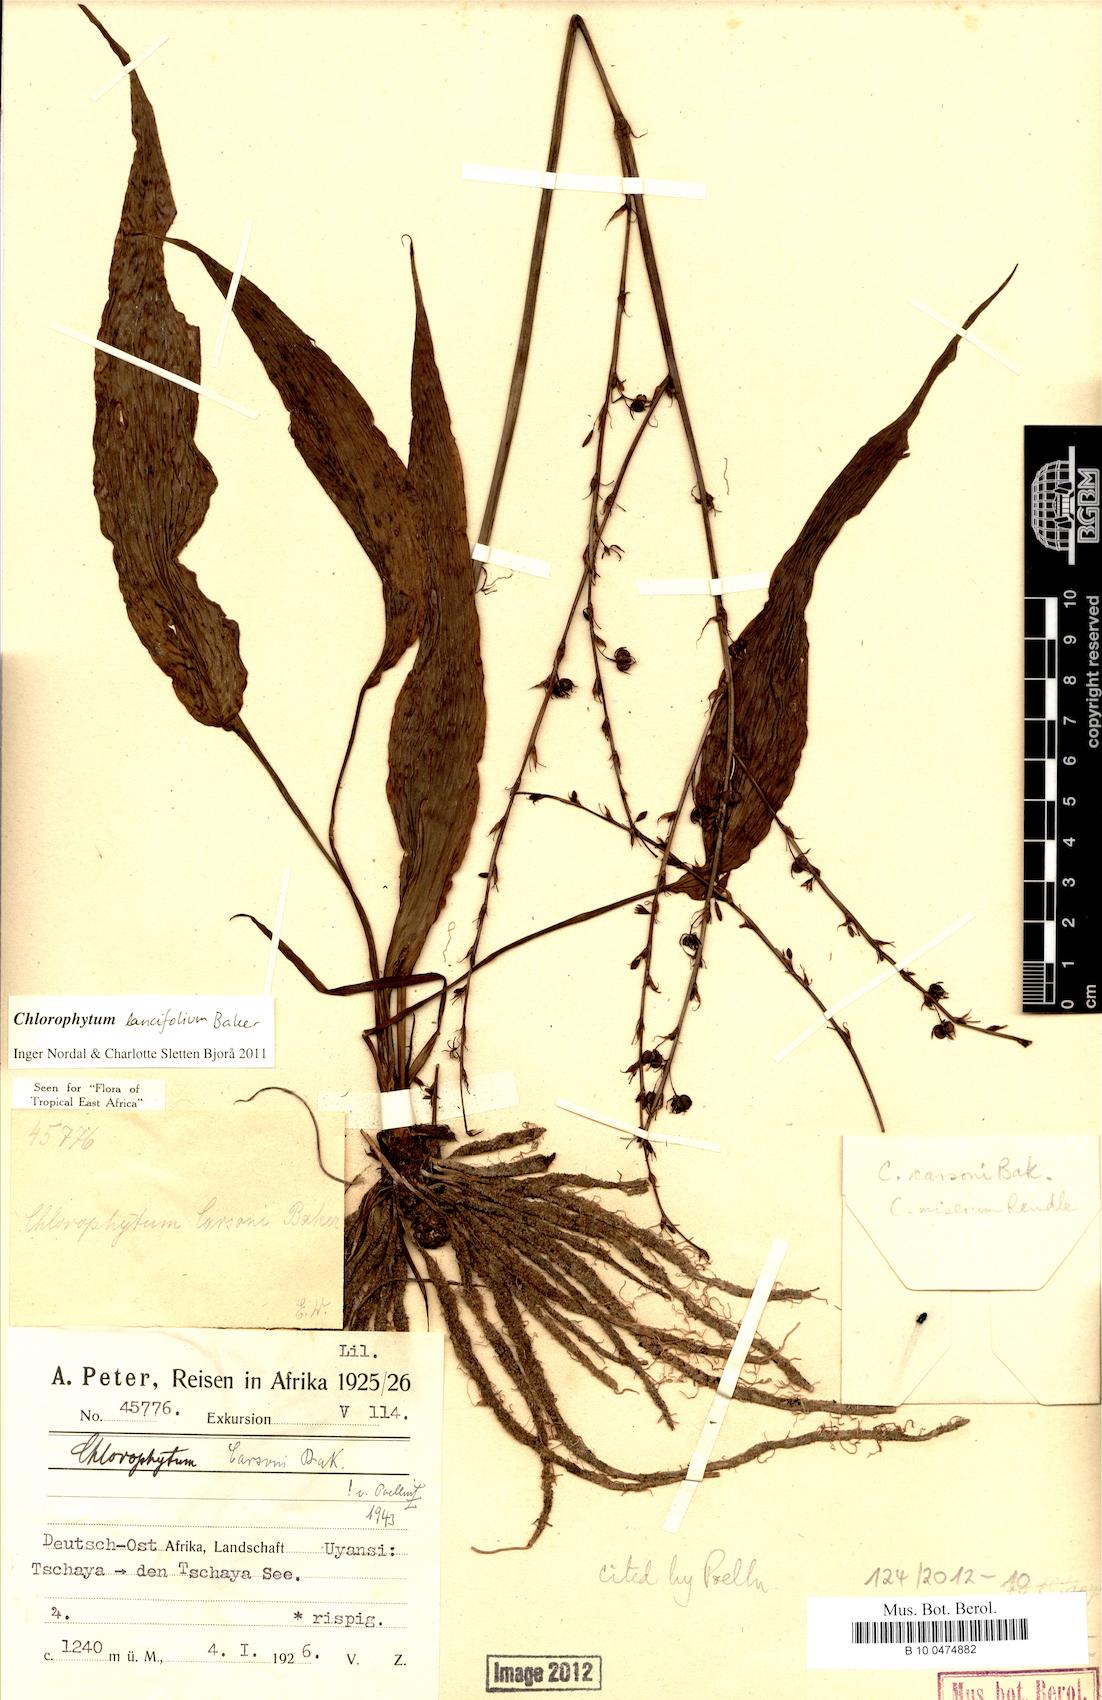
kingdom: Plantae
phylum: Tracheophyta
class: Liliopsida
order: Asparagales
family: Asparagaceae
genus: Chlorophytum
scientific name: Chlorophytum lancifolium
